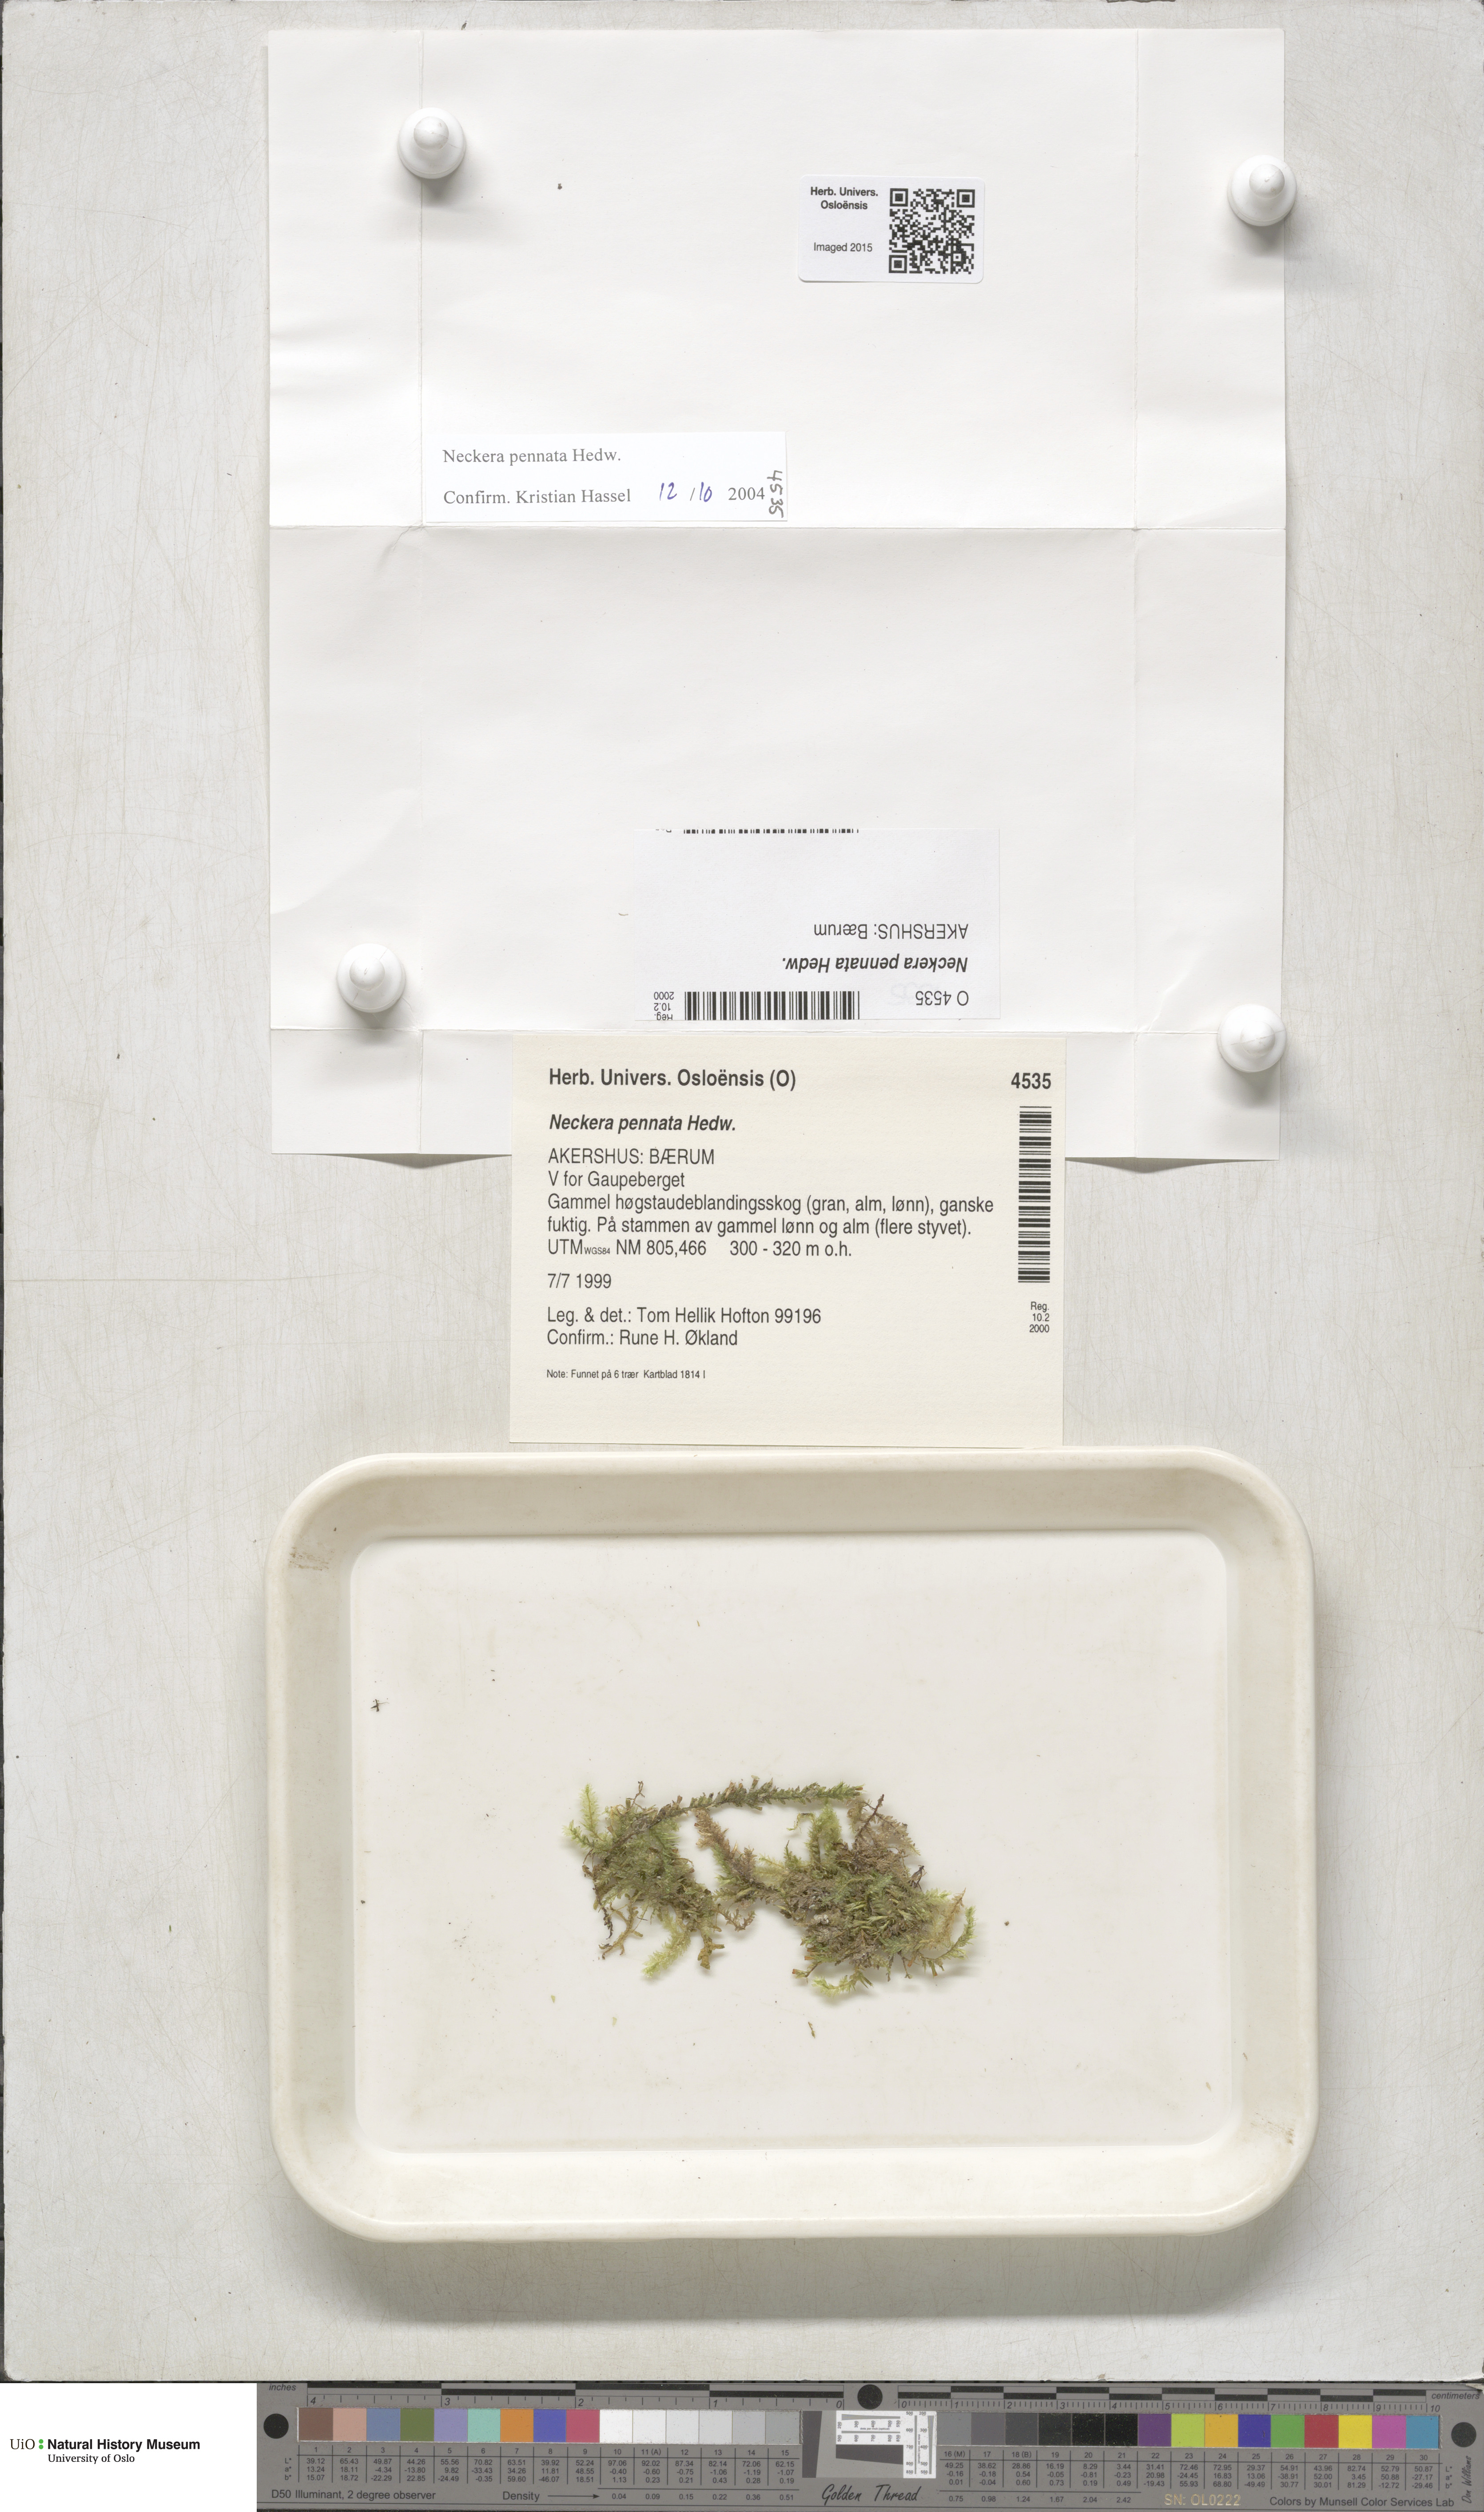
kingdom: Plantae
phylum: Bryophyta
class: Bryopsida
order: Hypnales
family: Neckeraceae
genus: Neckera
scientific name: Neckera pennata
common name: Feathery neckera
